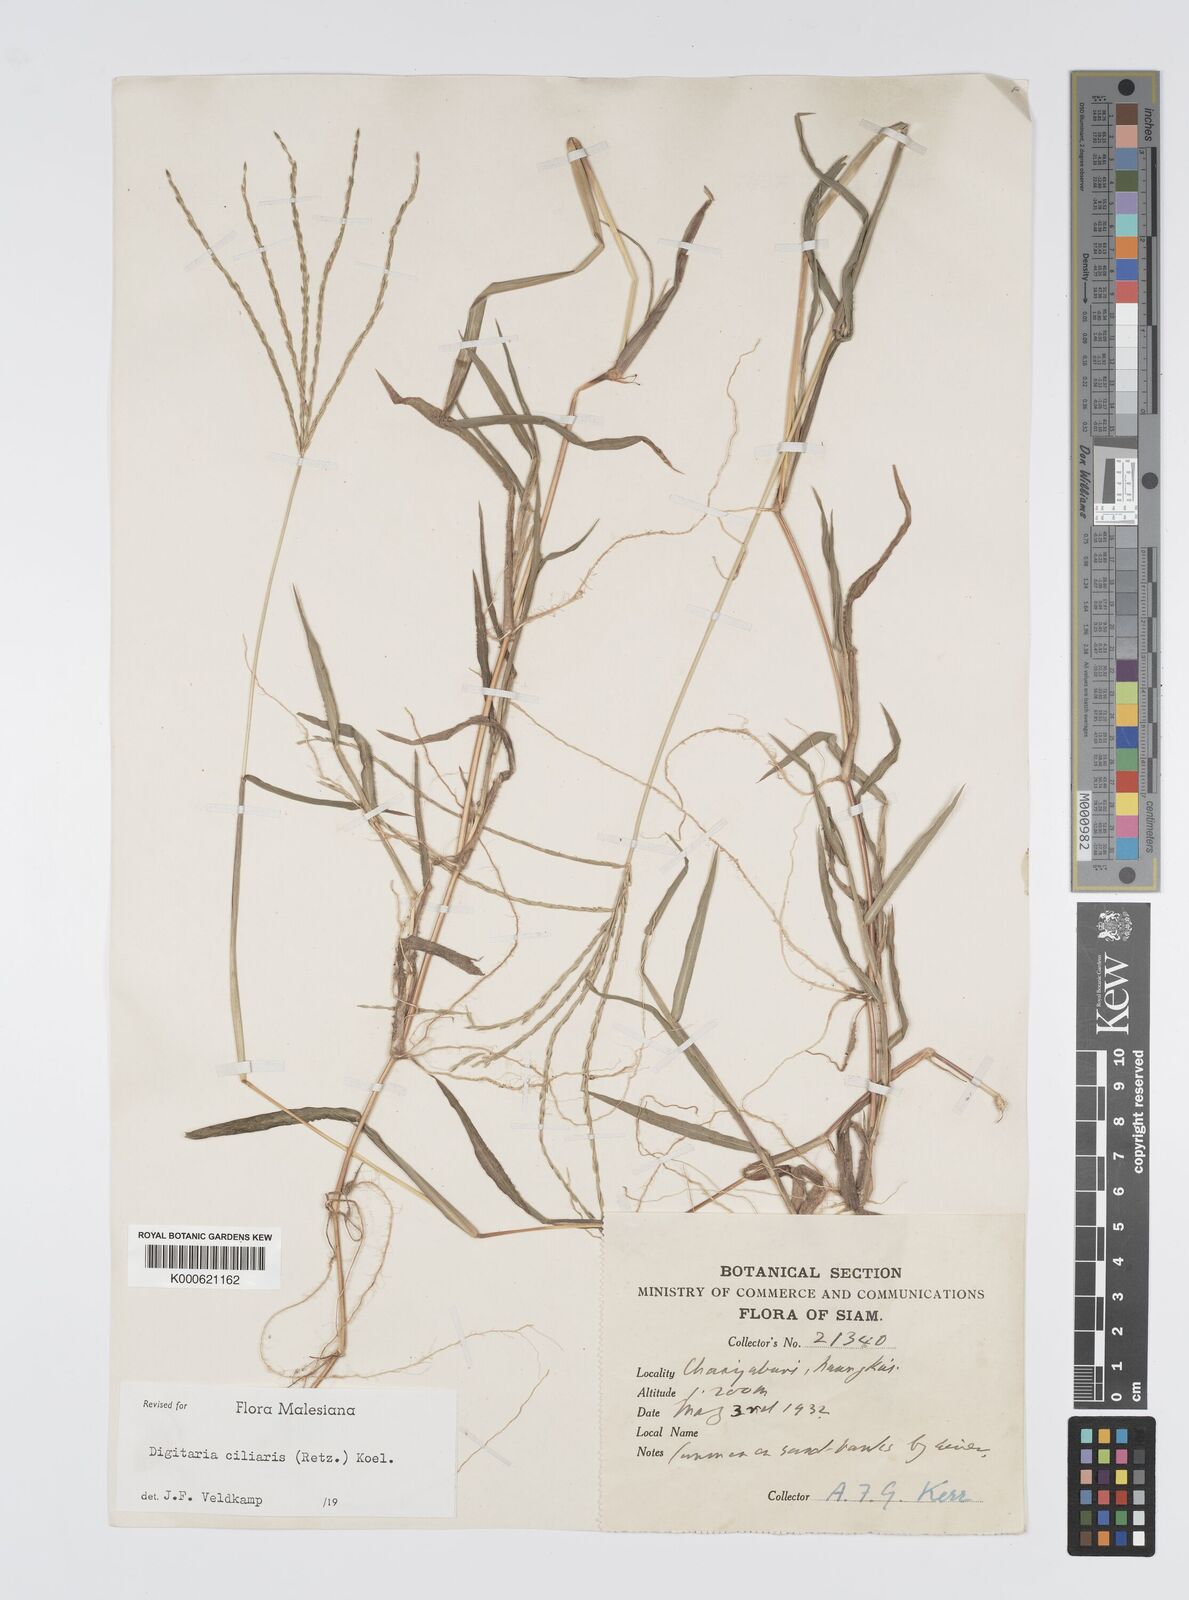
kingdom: Plantae
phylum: Tracheophyta
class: Liliopsida
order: Poales
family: Poaceae
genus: Digitaria
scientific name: Digitaria ciliaris
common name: Tropical finger-grass
